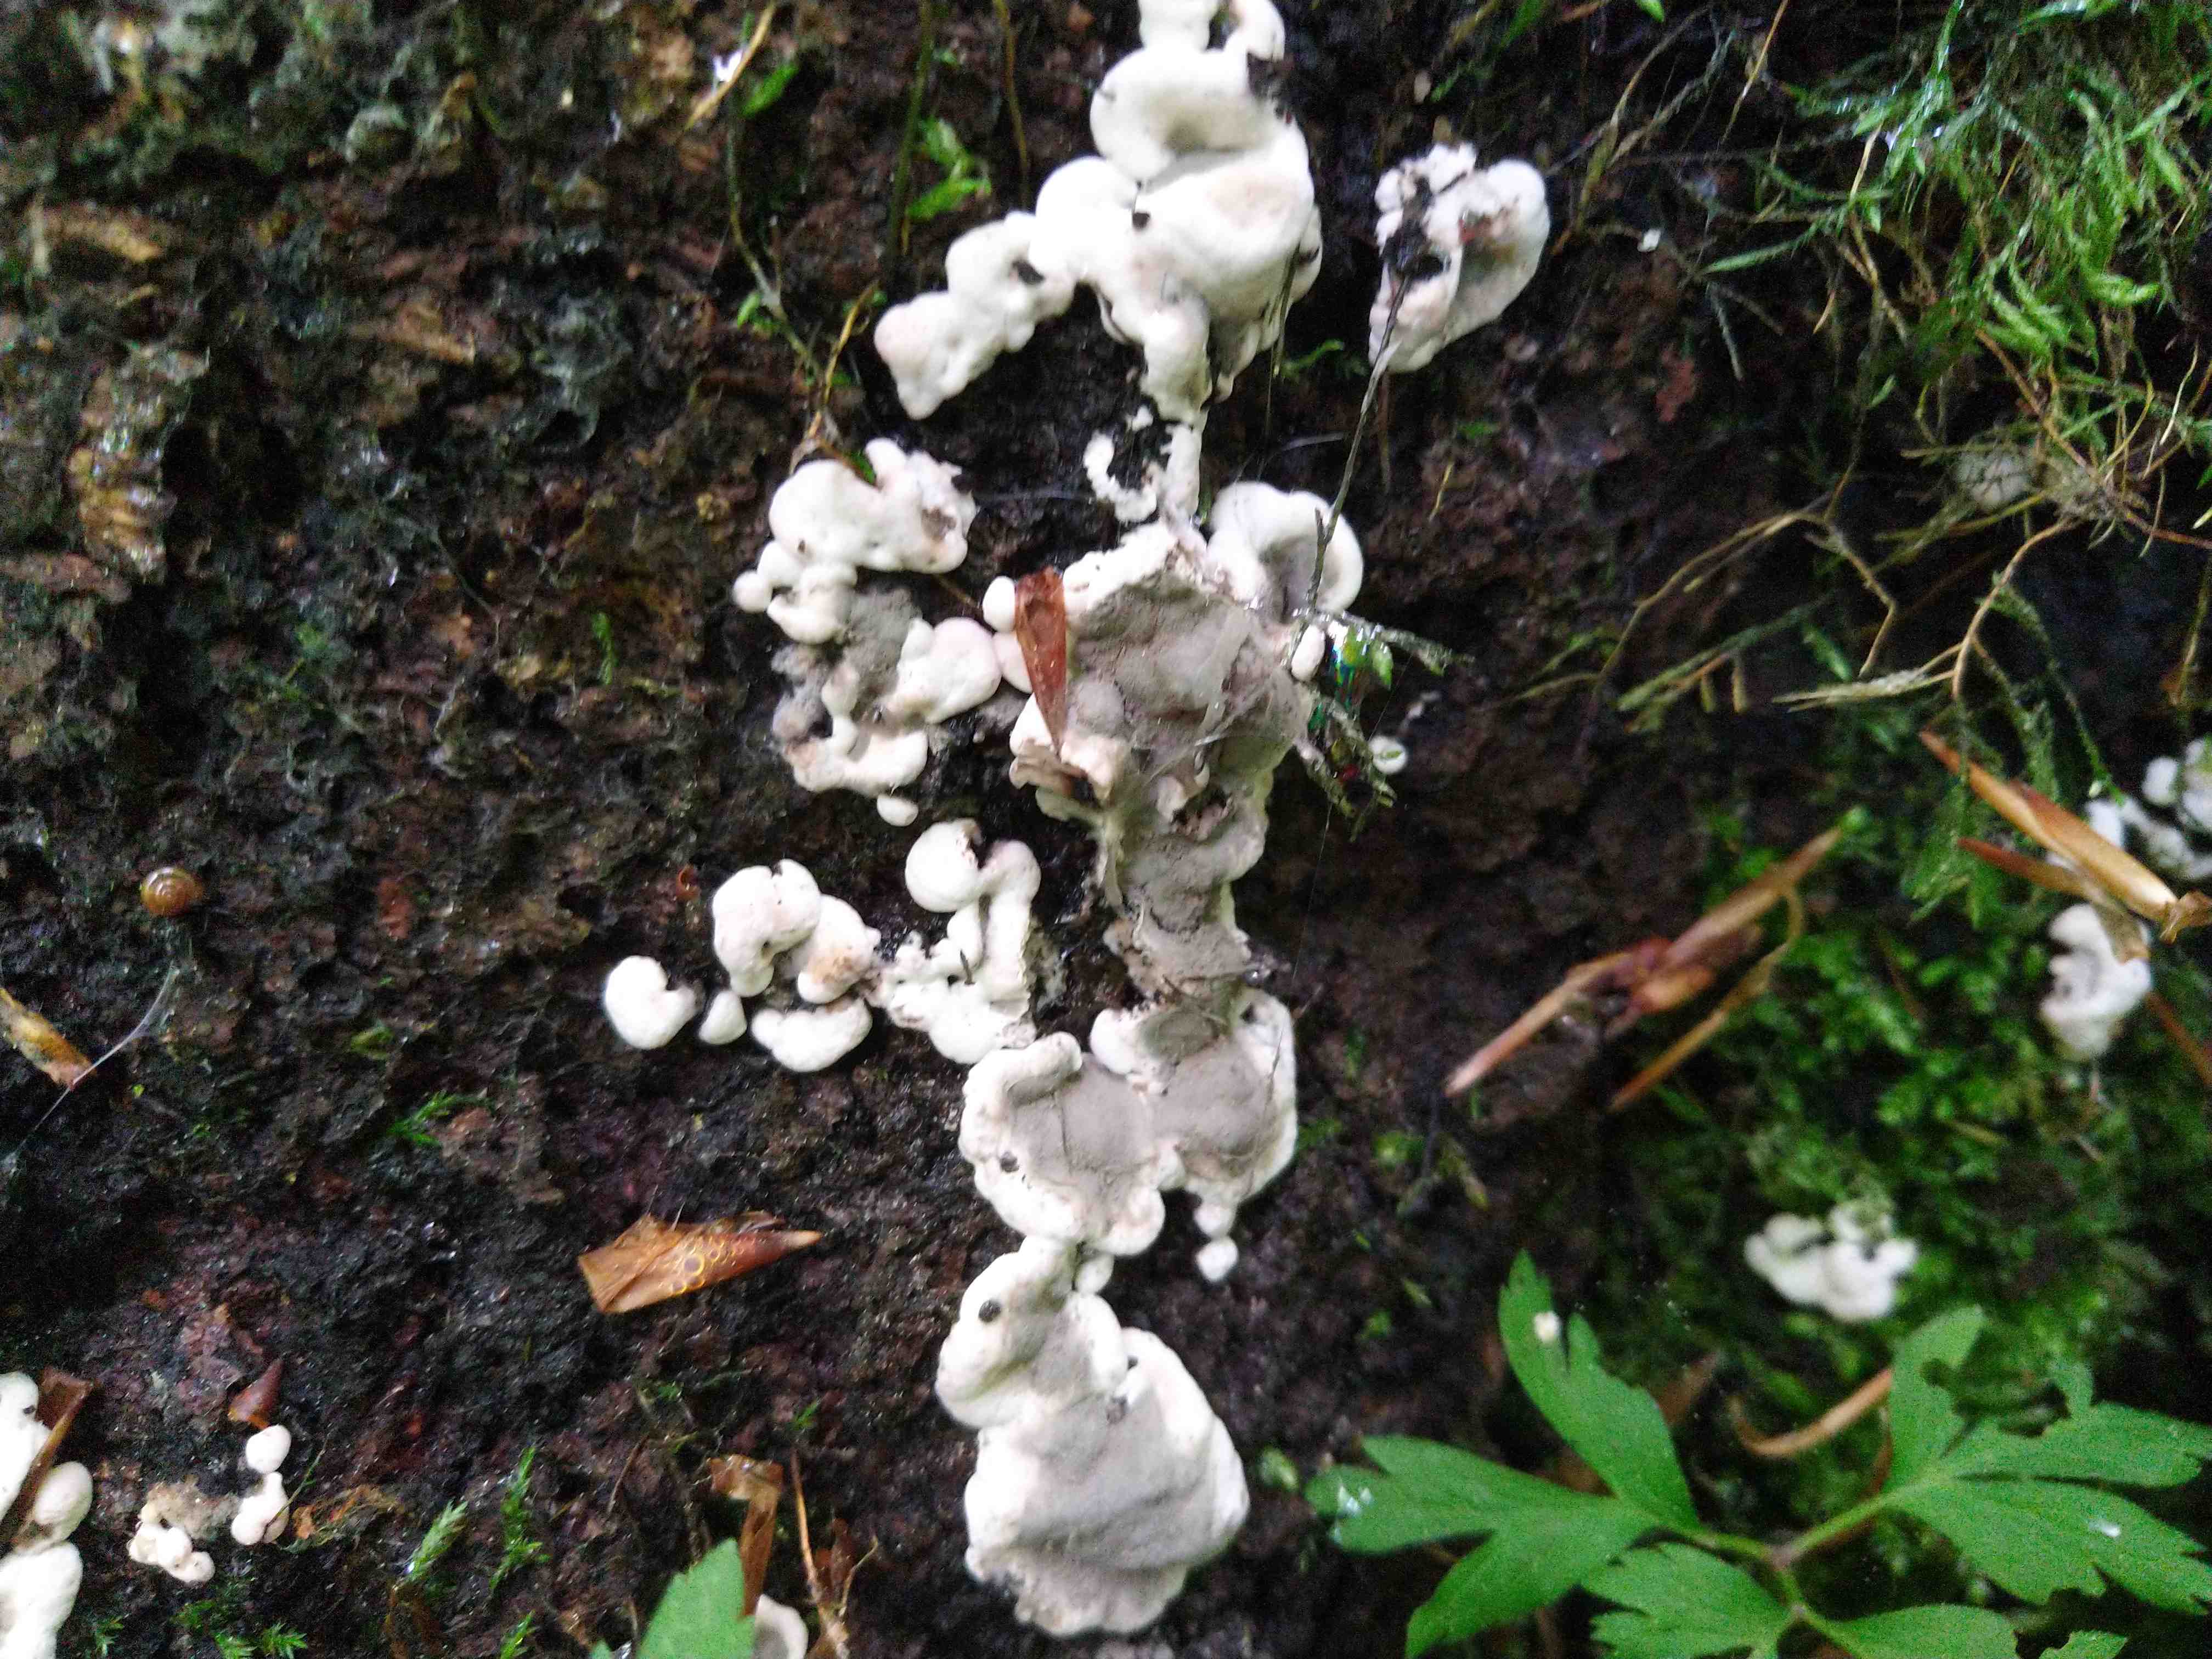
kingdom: Fungi
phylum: Ascomycota
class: Sordariomycetes
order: Xylariales
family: Xylariaceae
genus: Kretzschmaria
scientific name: Kretzschmaria deusta
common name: stor kulsvamp
